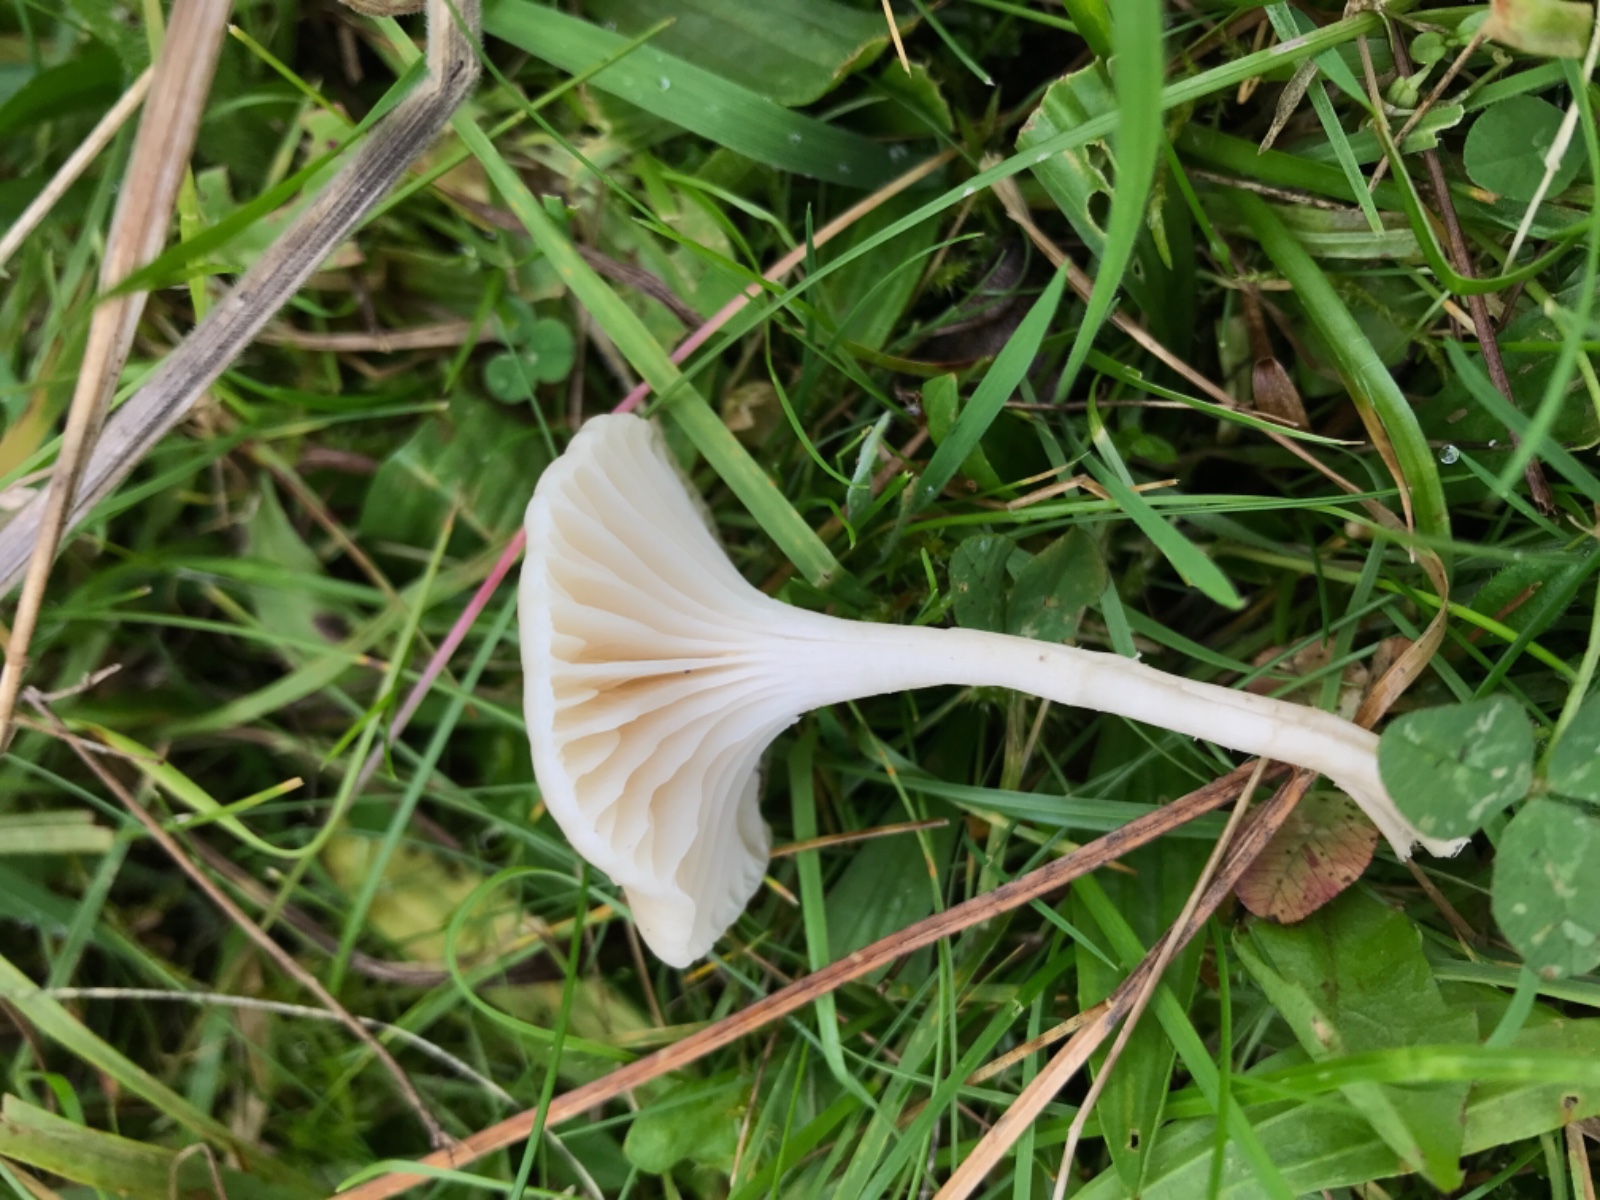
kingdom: Fungi
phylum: Basidiomycota
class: Agaricomycetes
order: Agaricales
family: Hygrophoraceae
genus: Cuphophyllus
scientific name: Cuphophyllus virgineus
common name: snehvid vokshat
